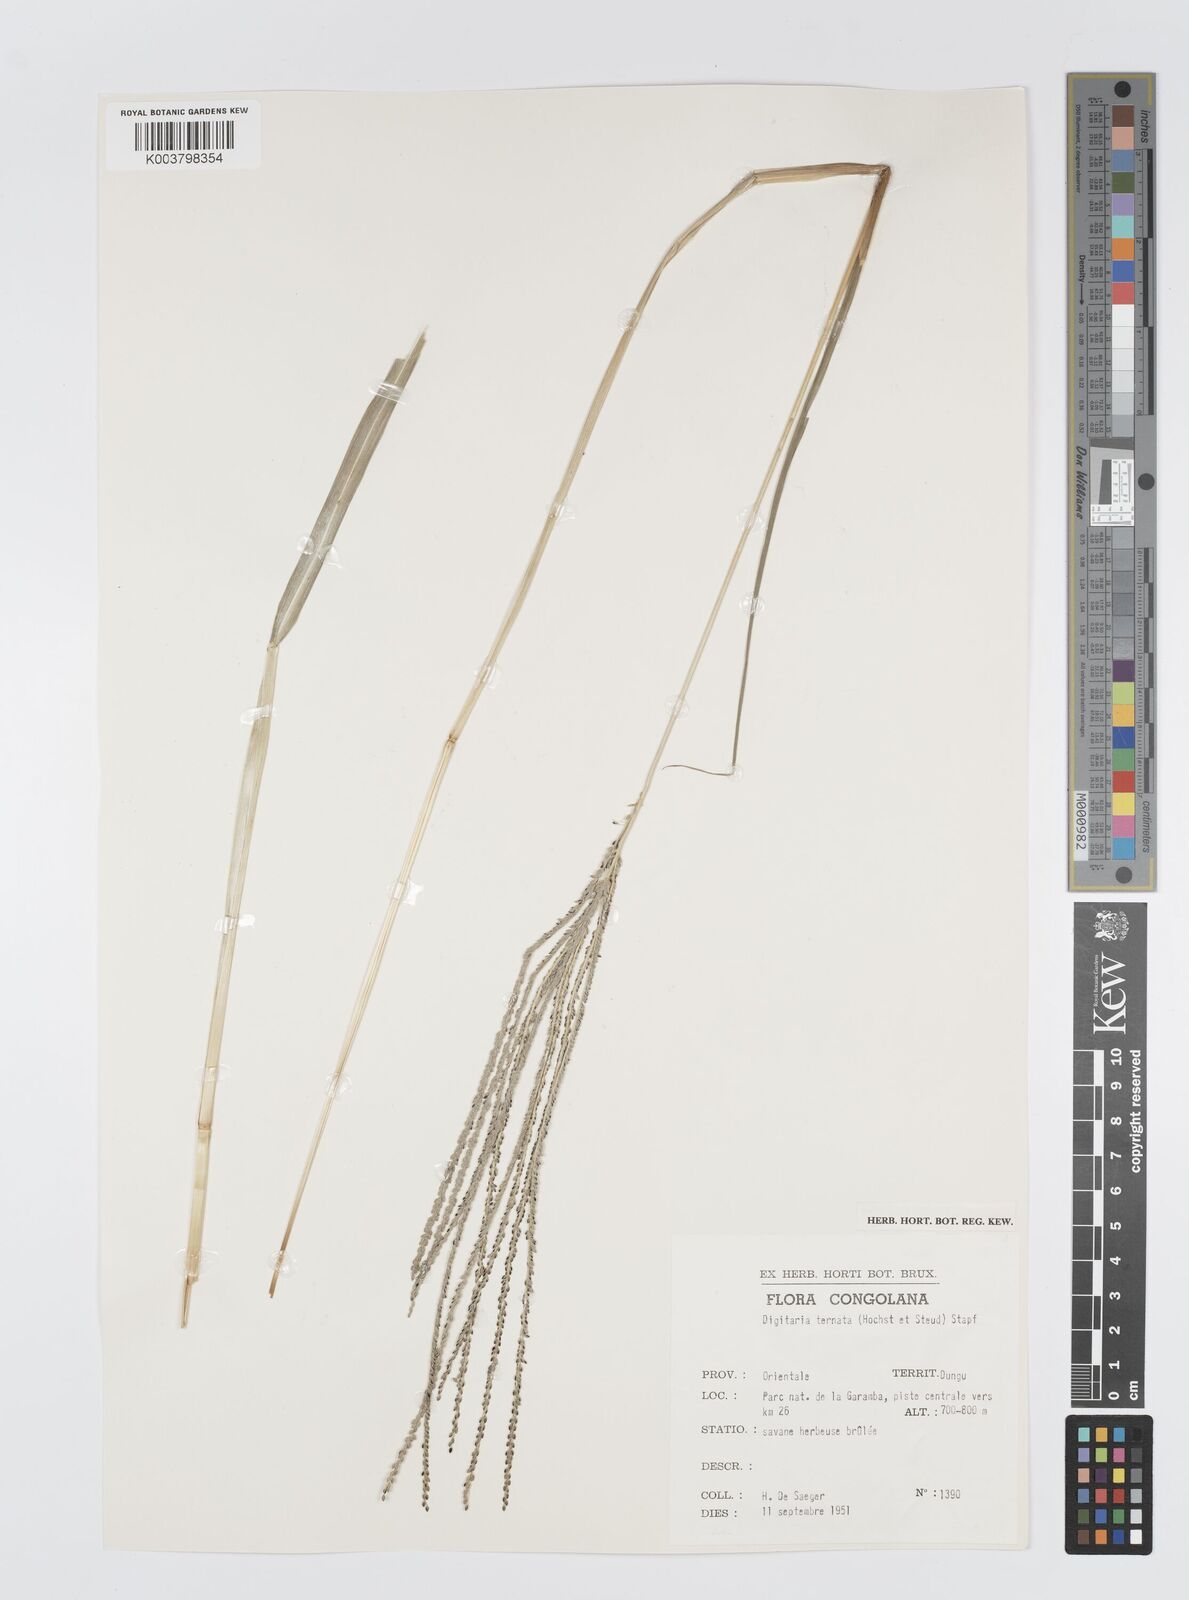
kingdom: Plantae
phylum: Tracheophyta
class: Liliopsida
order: Poales
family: Poaceae
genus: Digitaria
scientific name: Digitaria ternata
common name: Blackseed crabgrass
